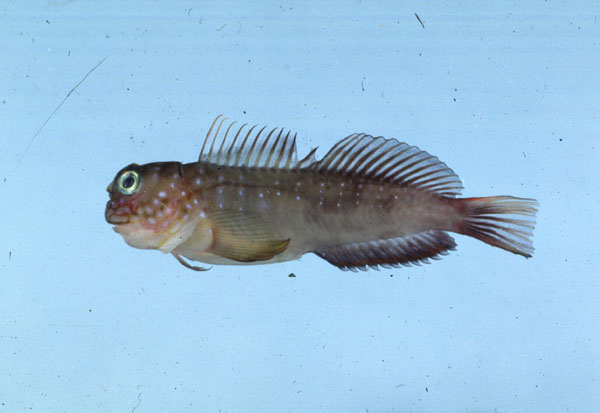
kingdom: Animalia
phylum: Chordata
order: Perciformes
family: Blenniidae
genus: Cirripectes
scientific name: Cirripectes quagga
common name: Squiggly blenny
